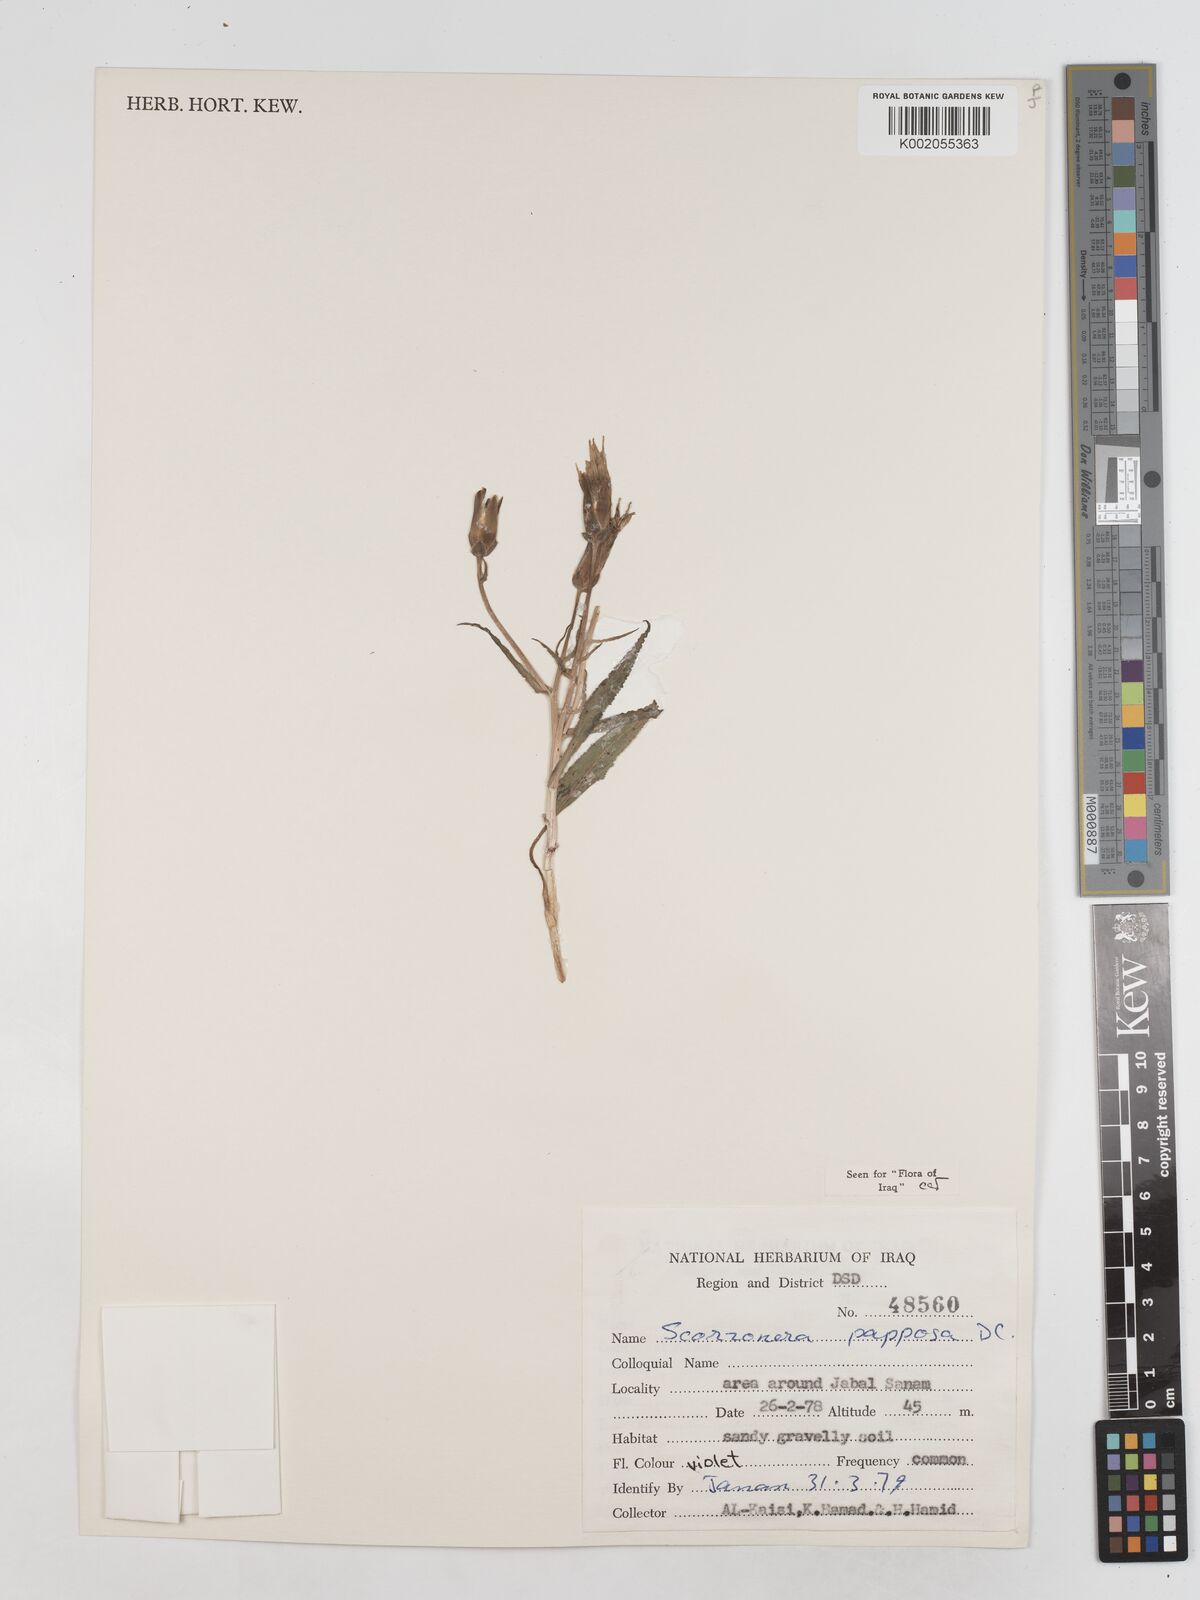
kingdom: Plantae
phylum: Tracheophyta
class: Magnoliopsida
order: Asterales
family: Asteraceae
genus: Pseudopodospermum
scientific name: Pseudopodospermum papposum
